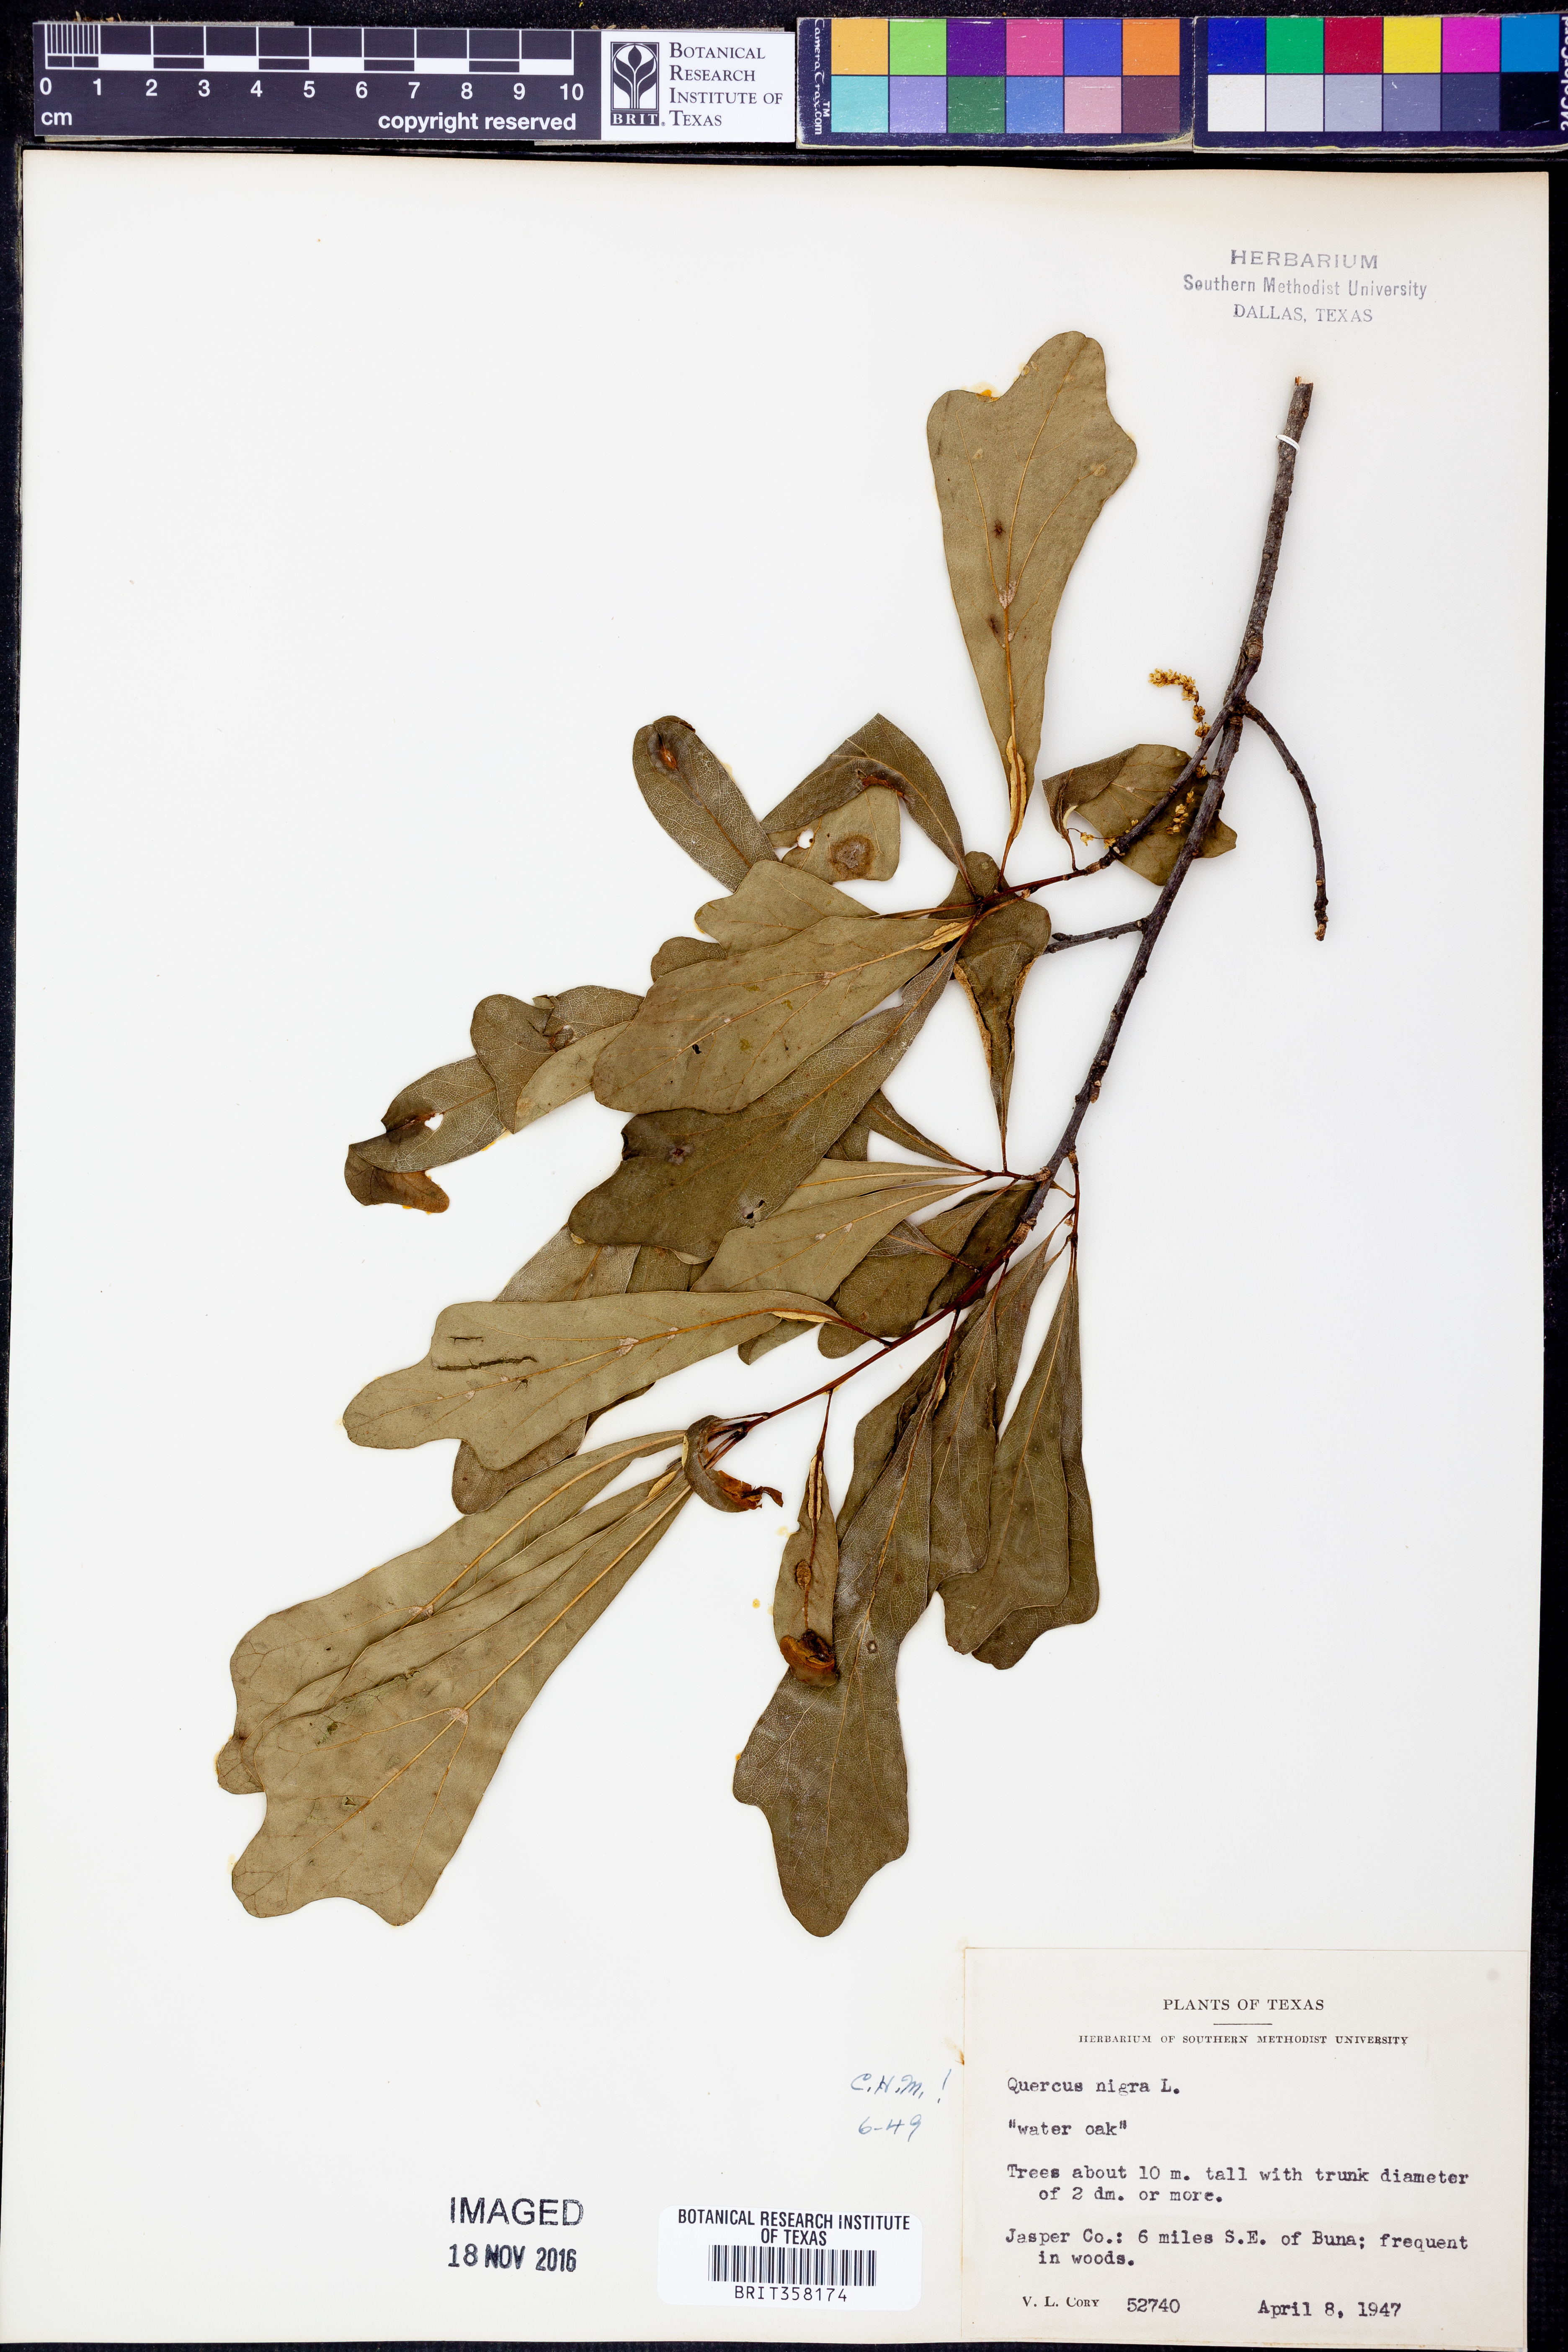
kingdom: Plantae
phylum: Tracheophyta
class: Magnoliopsida
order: Fagales
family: Fagaceae
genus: Quercus
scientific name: Quercus nigra
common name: Water oak
